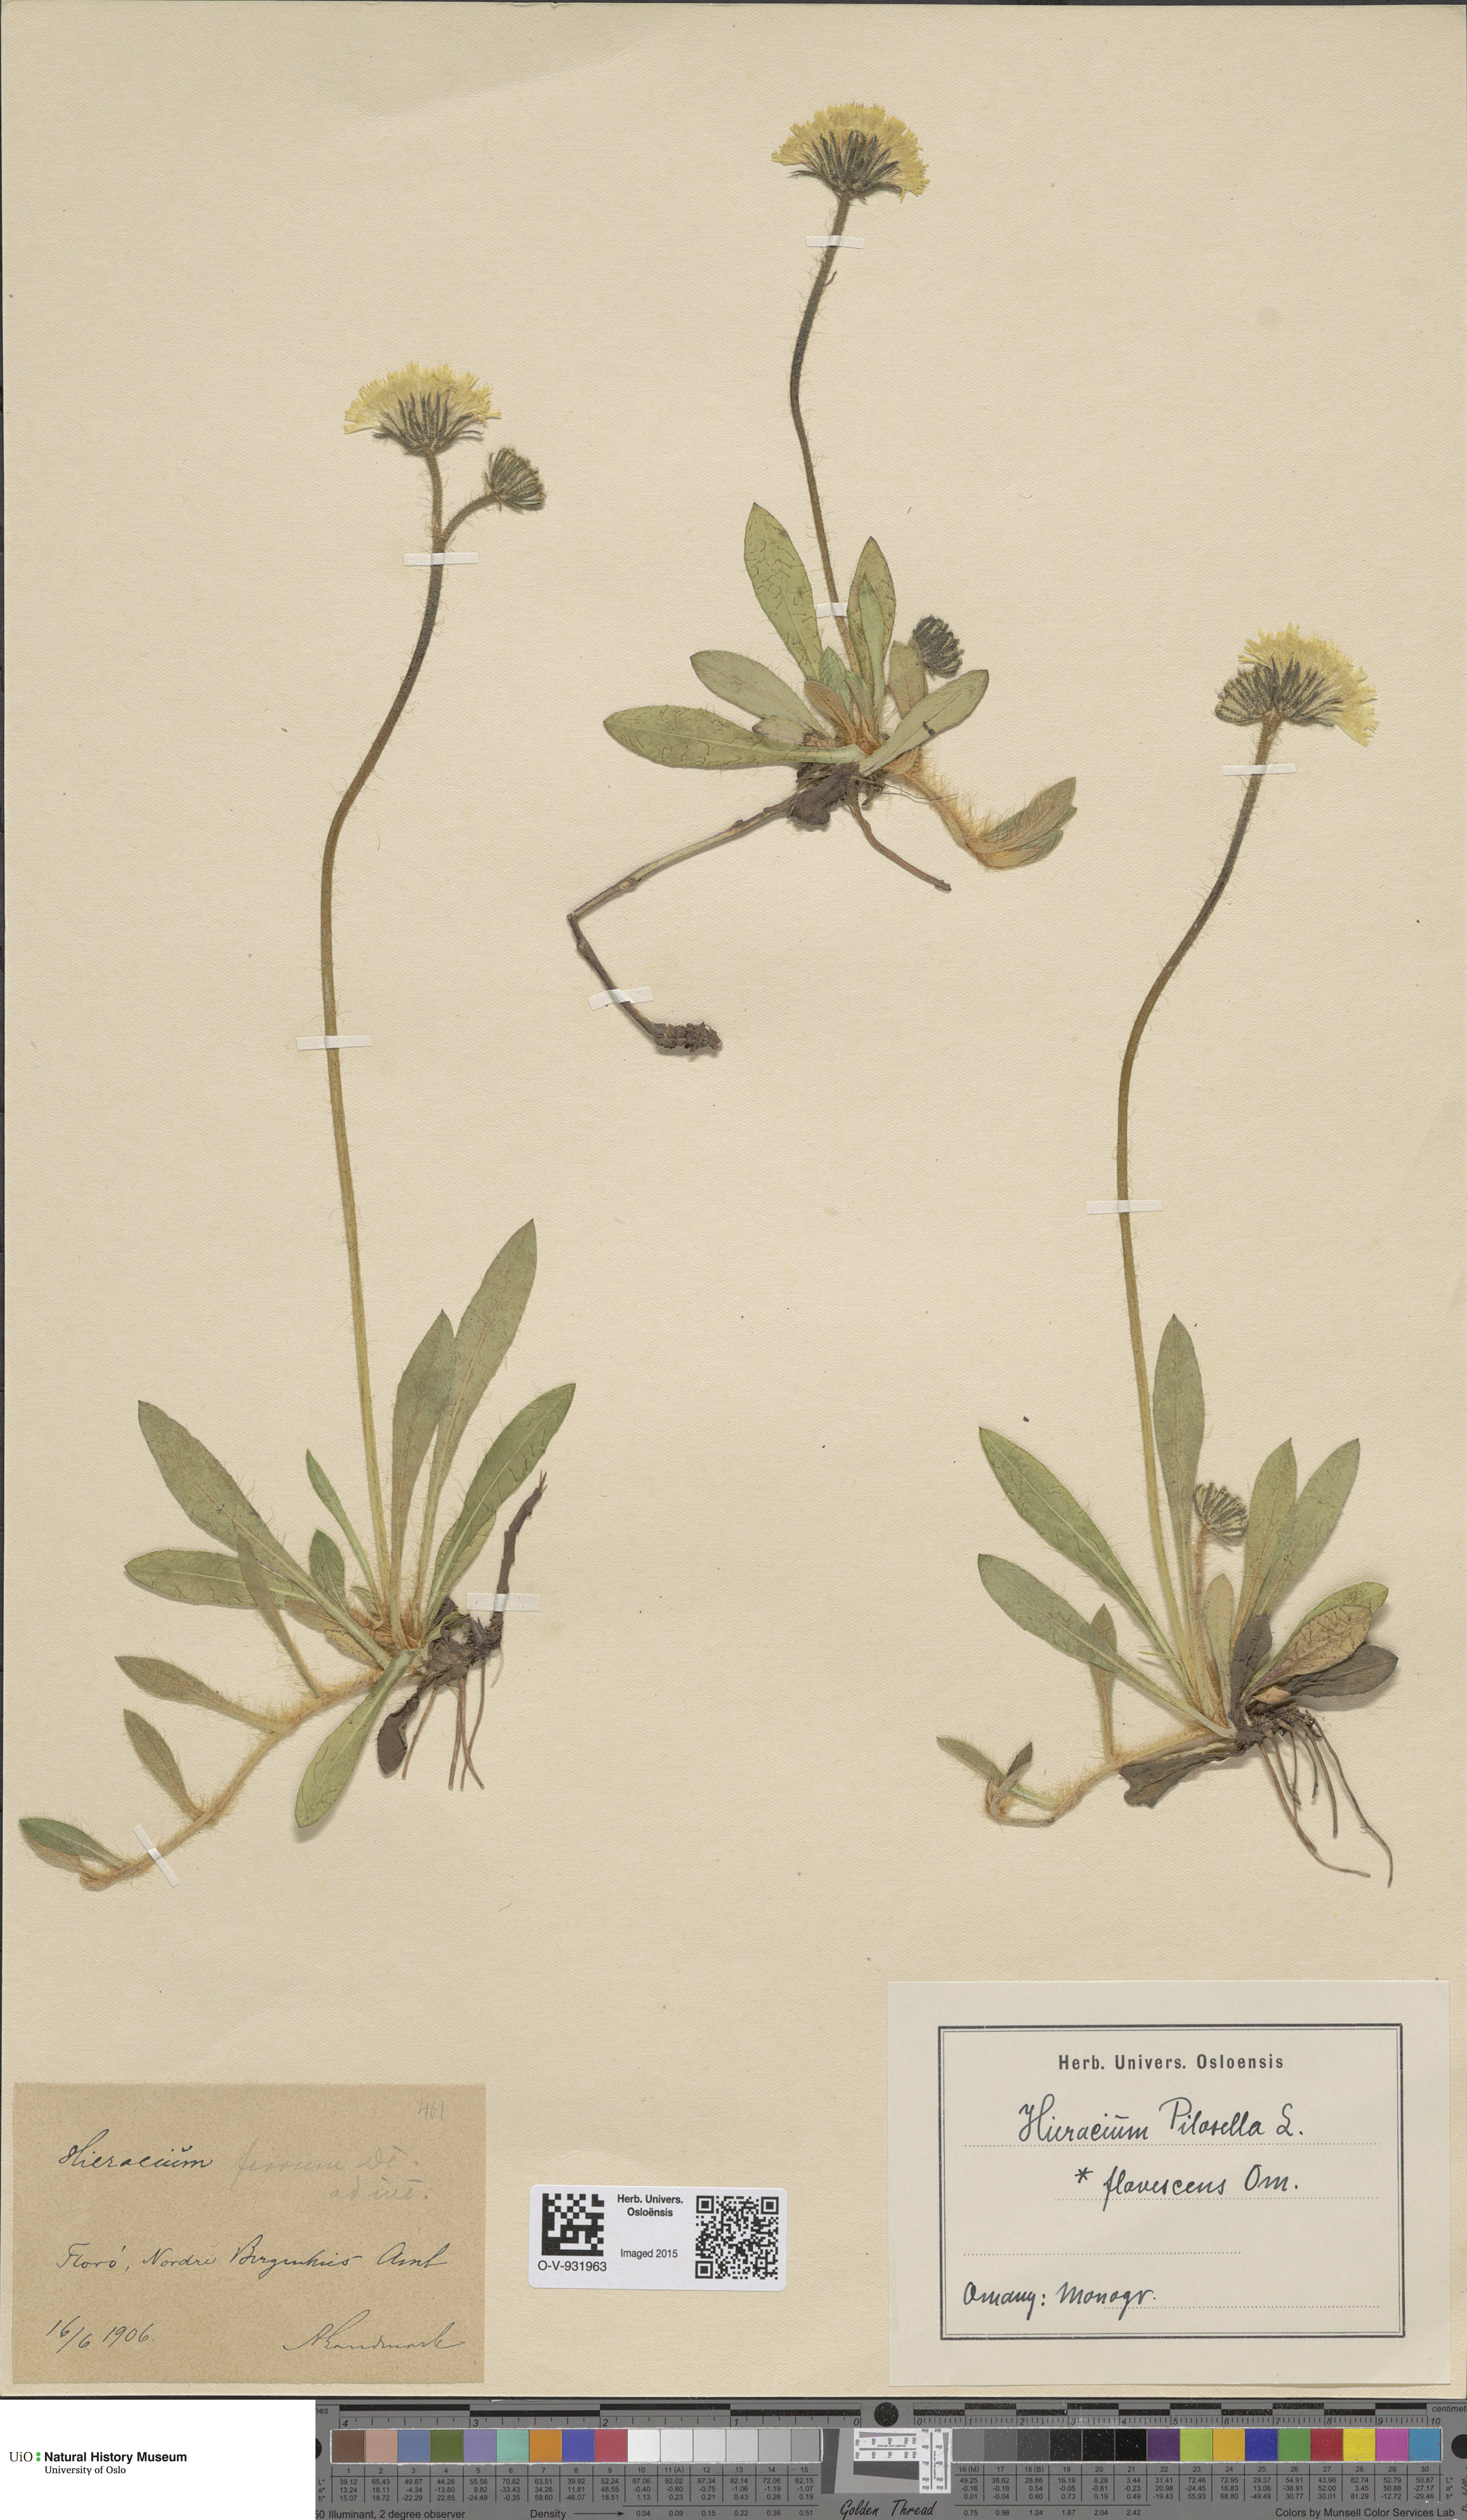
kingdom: Plantae
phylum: Tracheophyta
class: Magnoliopsida
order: Asterales
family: Asteraceae
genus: Pilosella
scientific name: Pilosella officinarum
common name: Mouse-ear hawkweed
